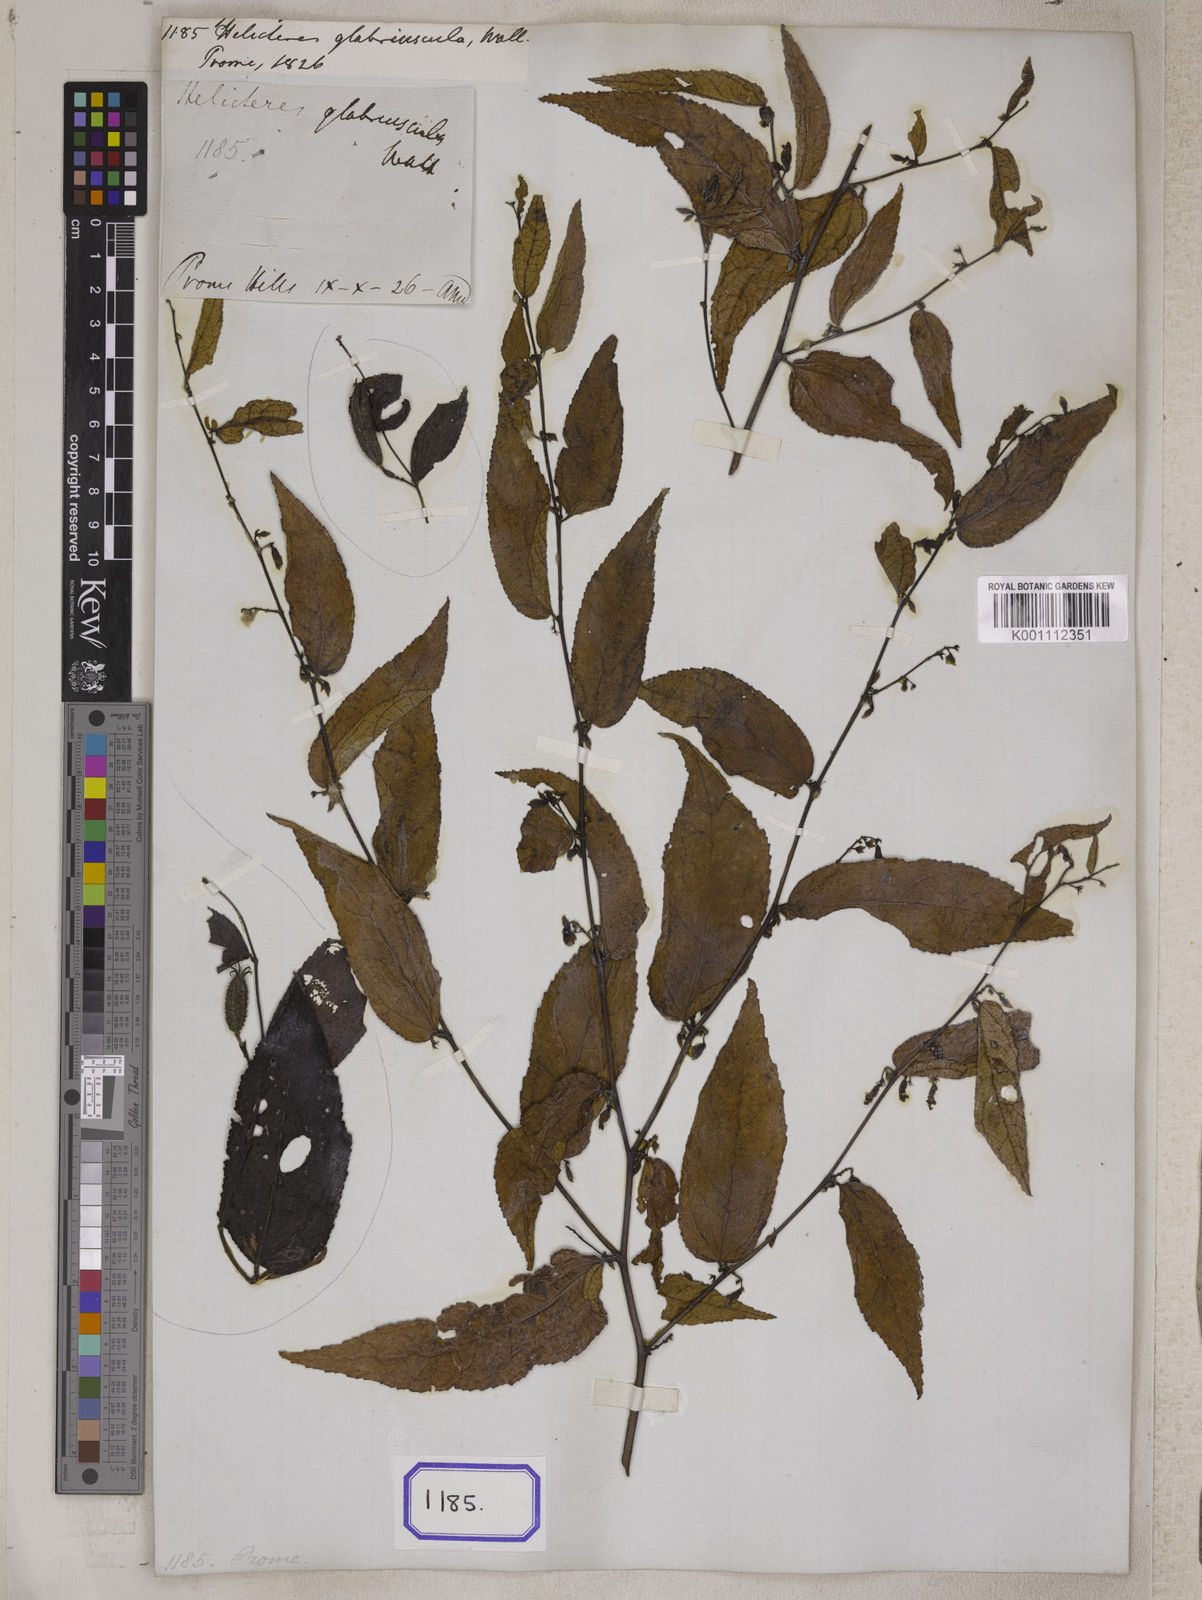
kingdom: Plantae
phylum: Tracheophyta
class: Magnoliopsida
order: Malvales
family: Malvaceae
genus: Helicteres
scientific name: Helicteres
